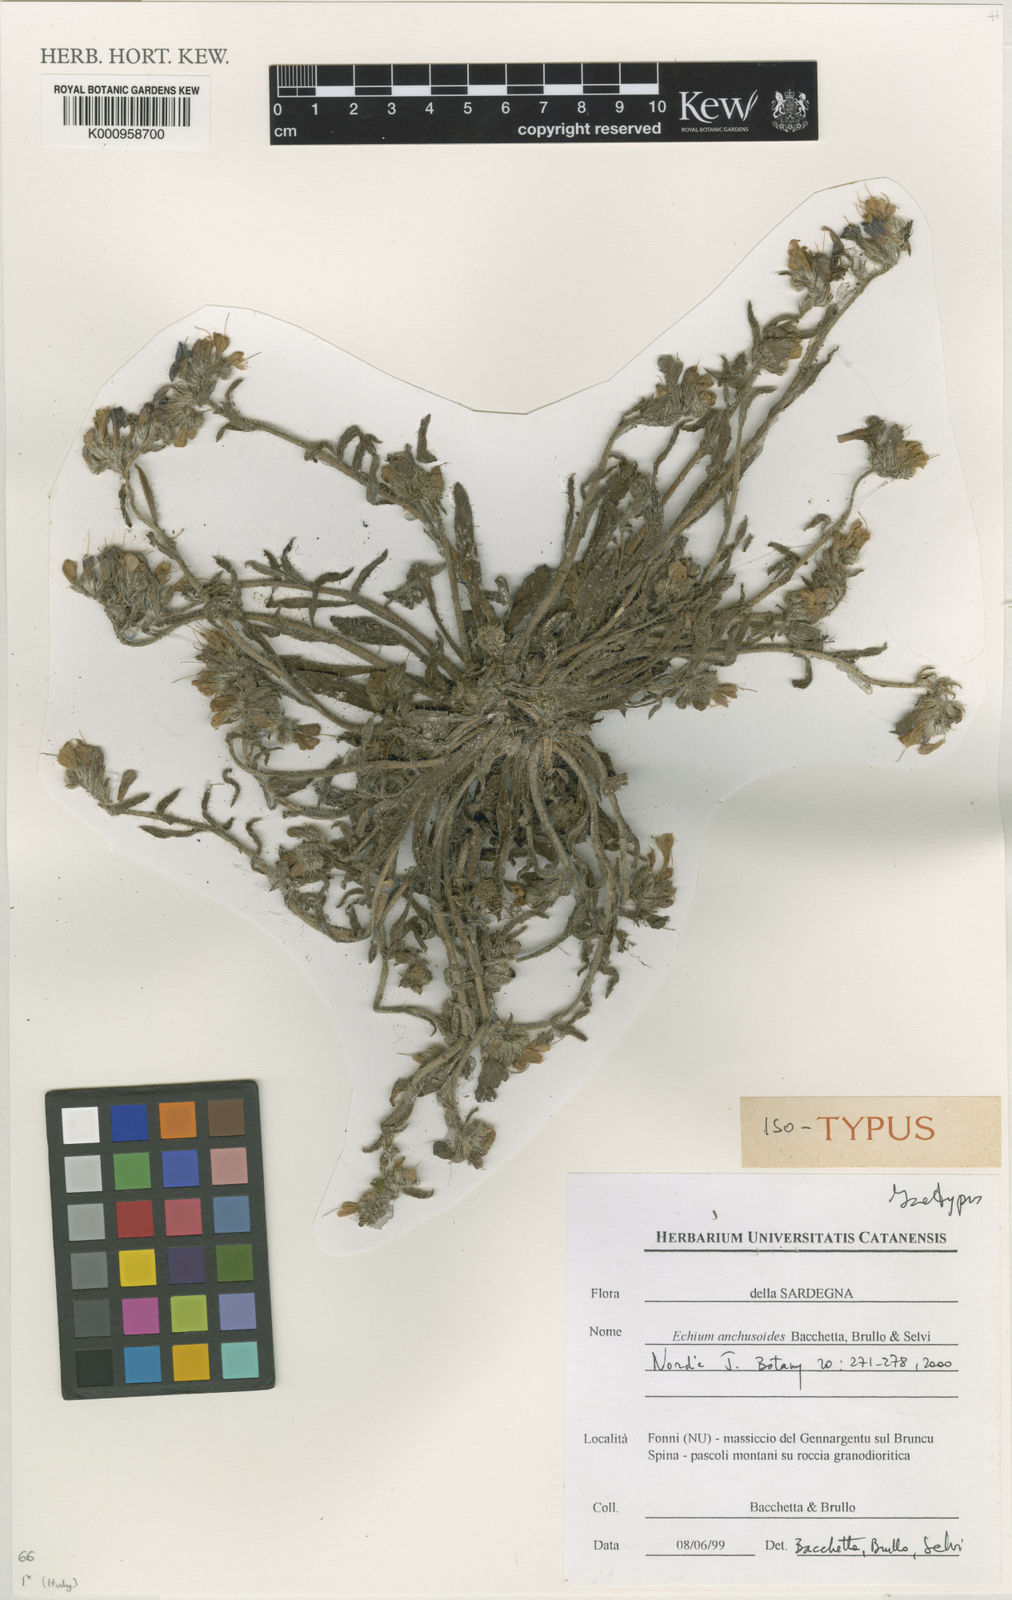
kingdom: Plantae
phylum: Tracheophyta
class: Magnoliopsida
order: Boraginales
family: Boraginaceae
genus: Echium
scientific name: Echium anchusoides
